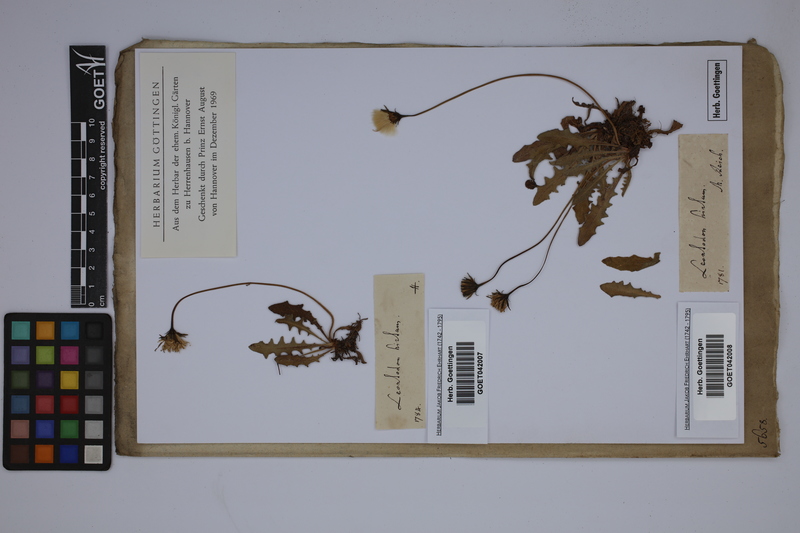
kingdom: Plantae
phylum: Tracheophyta
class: Magnoliopsida
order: Asterales
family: Asteraceae
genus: Leontodon
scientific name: Leontodon hirtum
